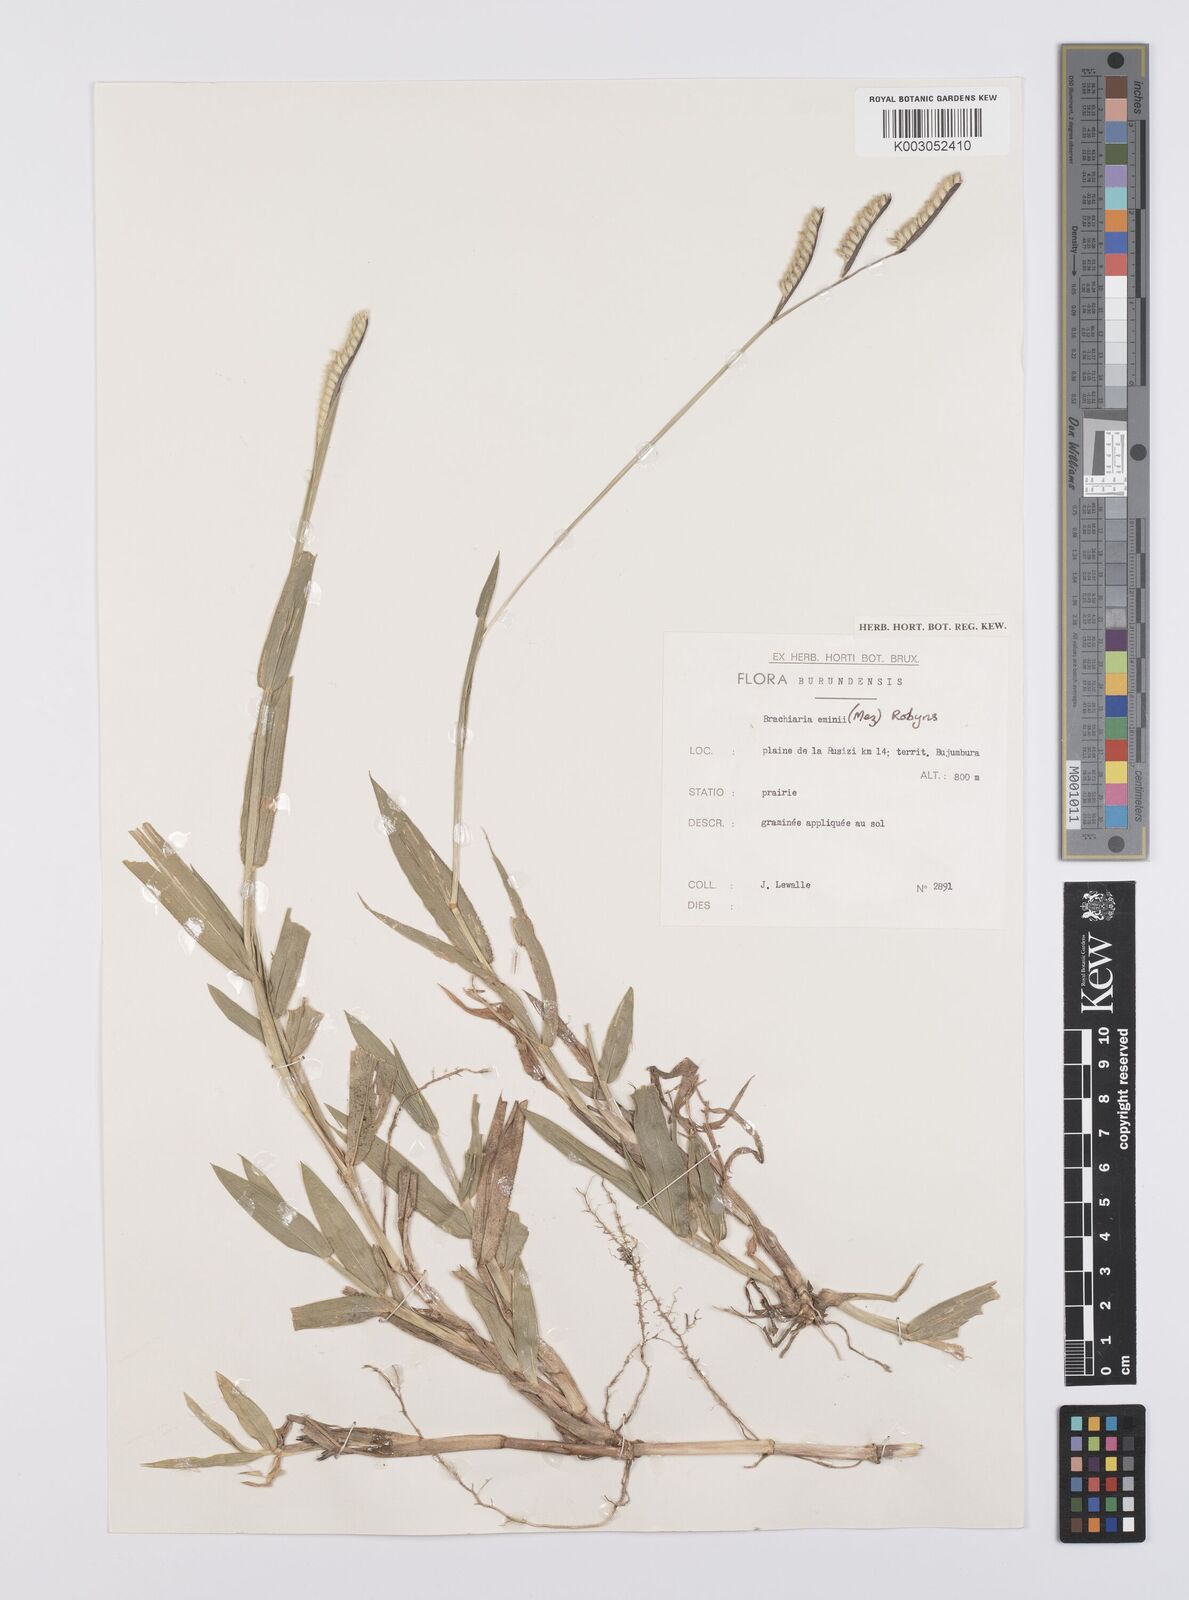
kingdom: Plantae
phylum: Tracheophyta
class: Liliopsida
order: Poales
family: Poaceae
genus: Urochloa
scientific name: Urochloa eminii
